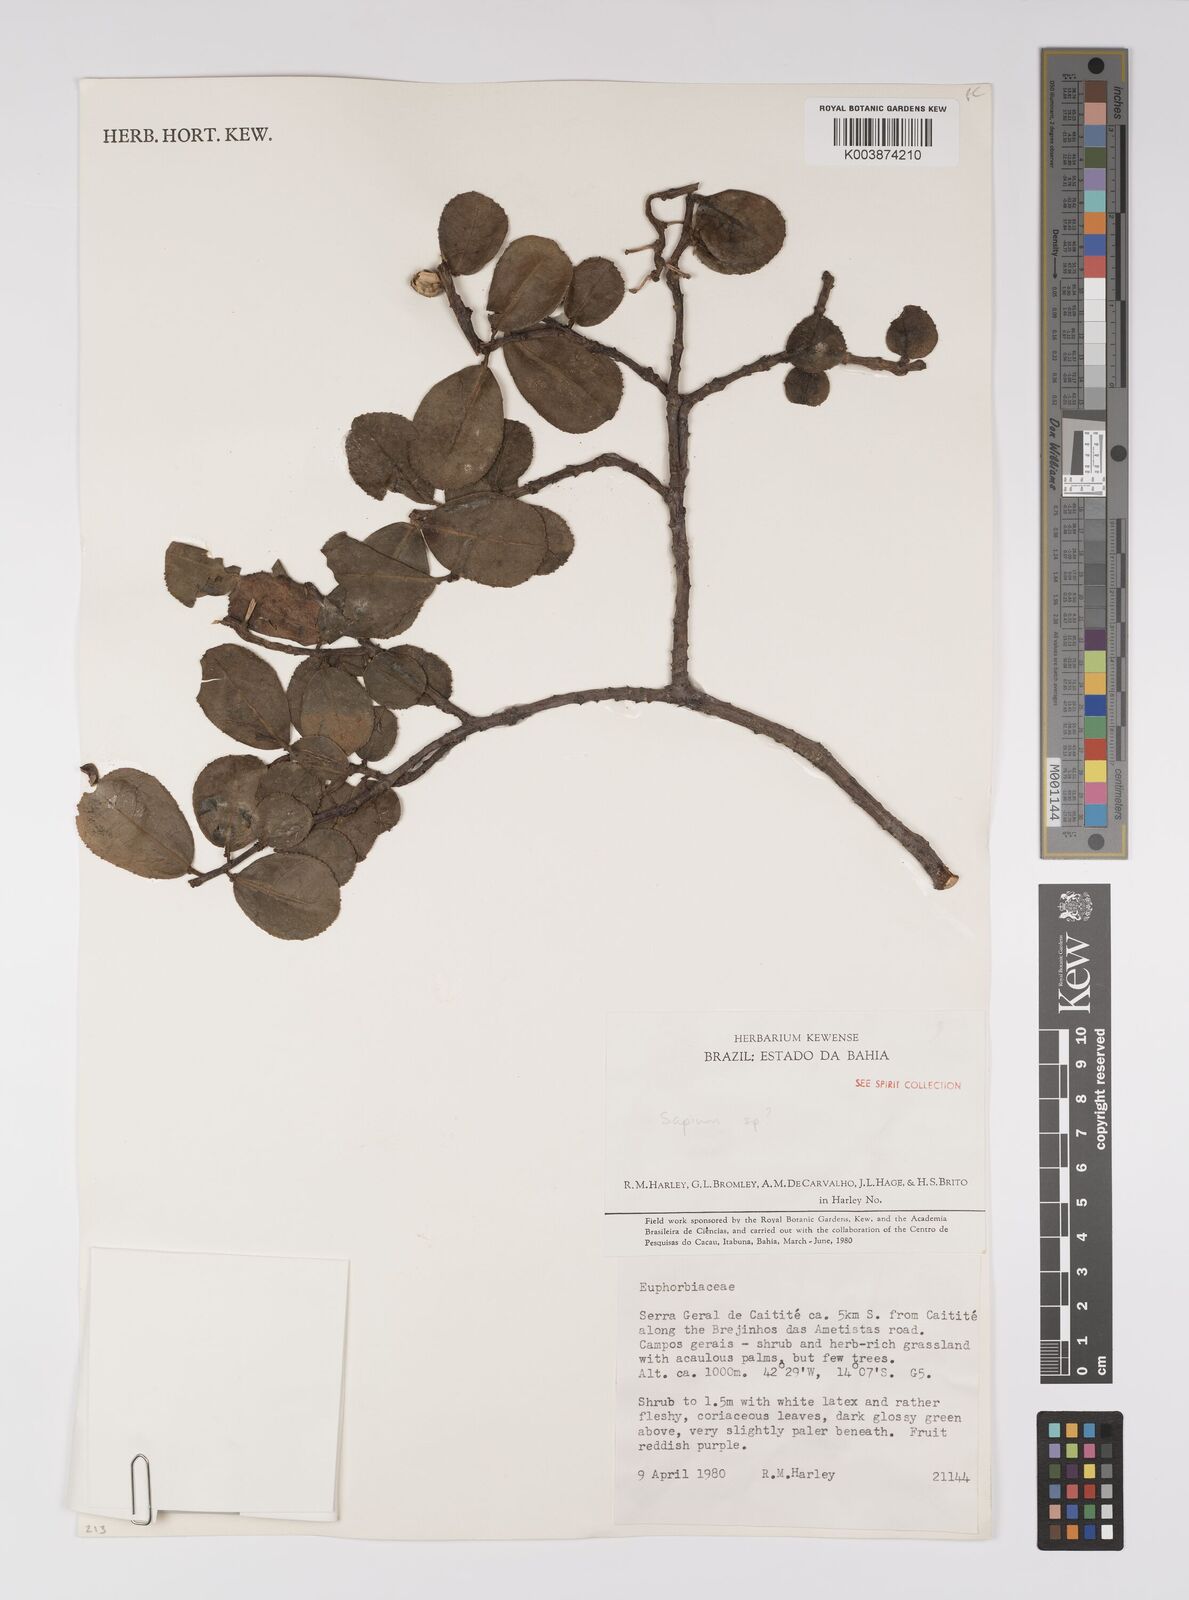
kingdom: Plantae
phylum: Tracheophyta
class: Magnoliopsida
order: Malpighiales
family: Euphorbiaceae
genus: Sapium
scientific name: Sapium
